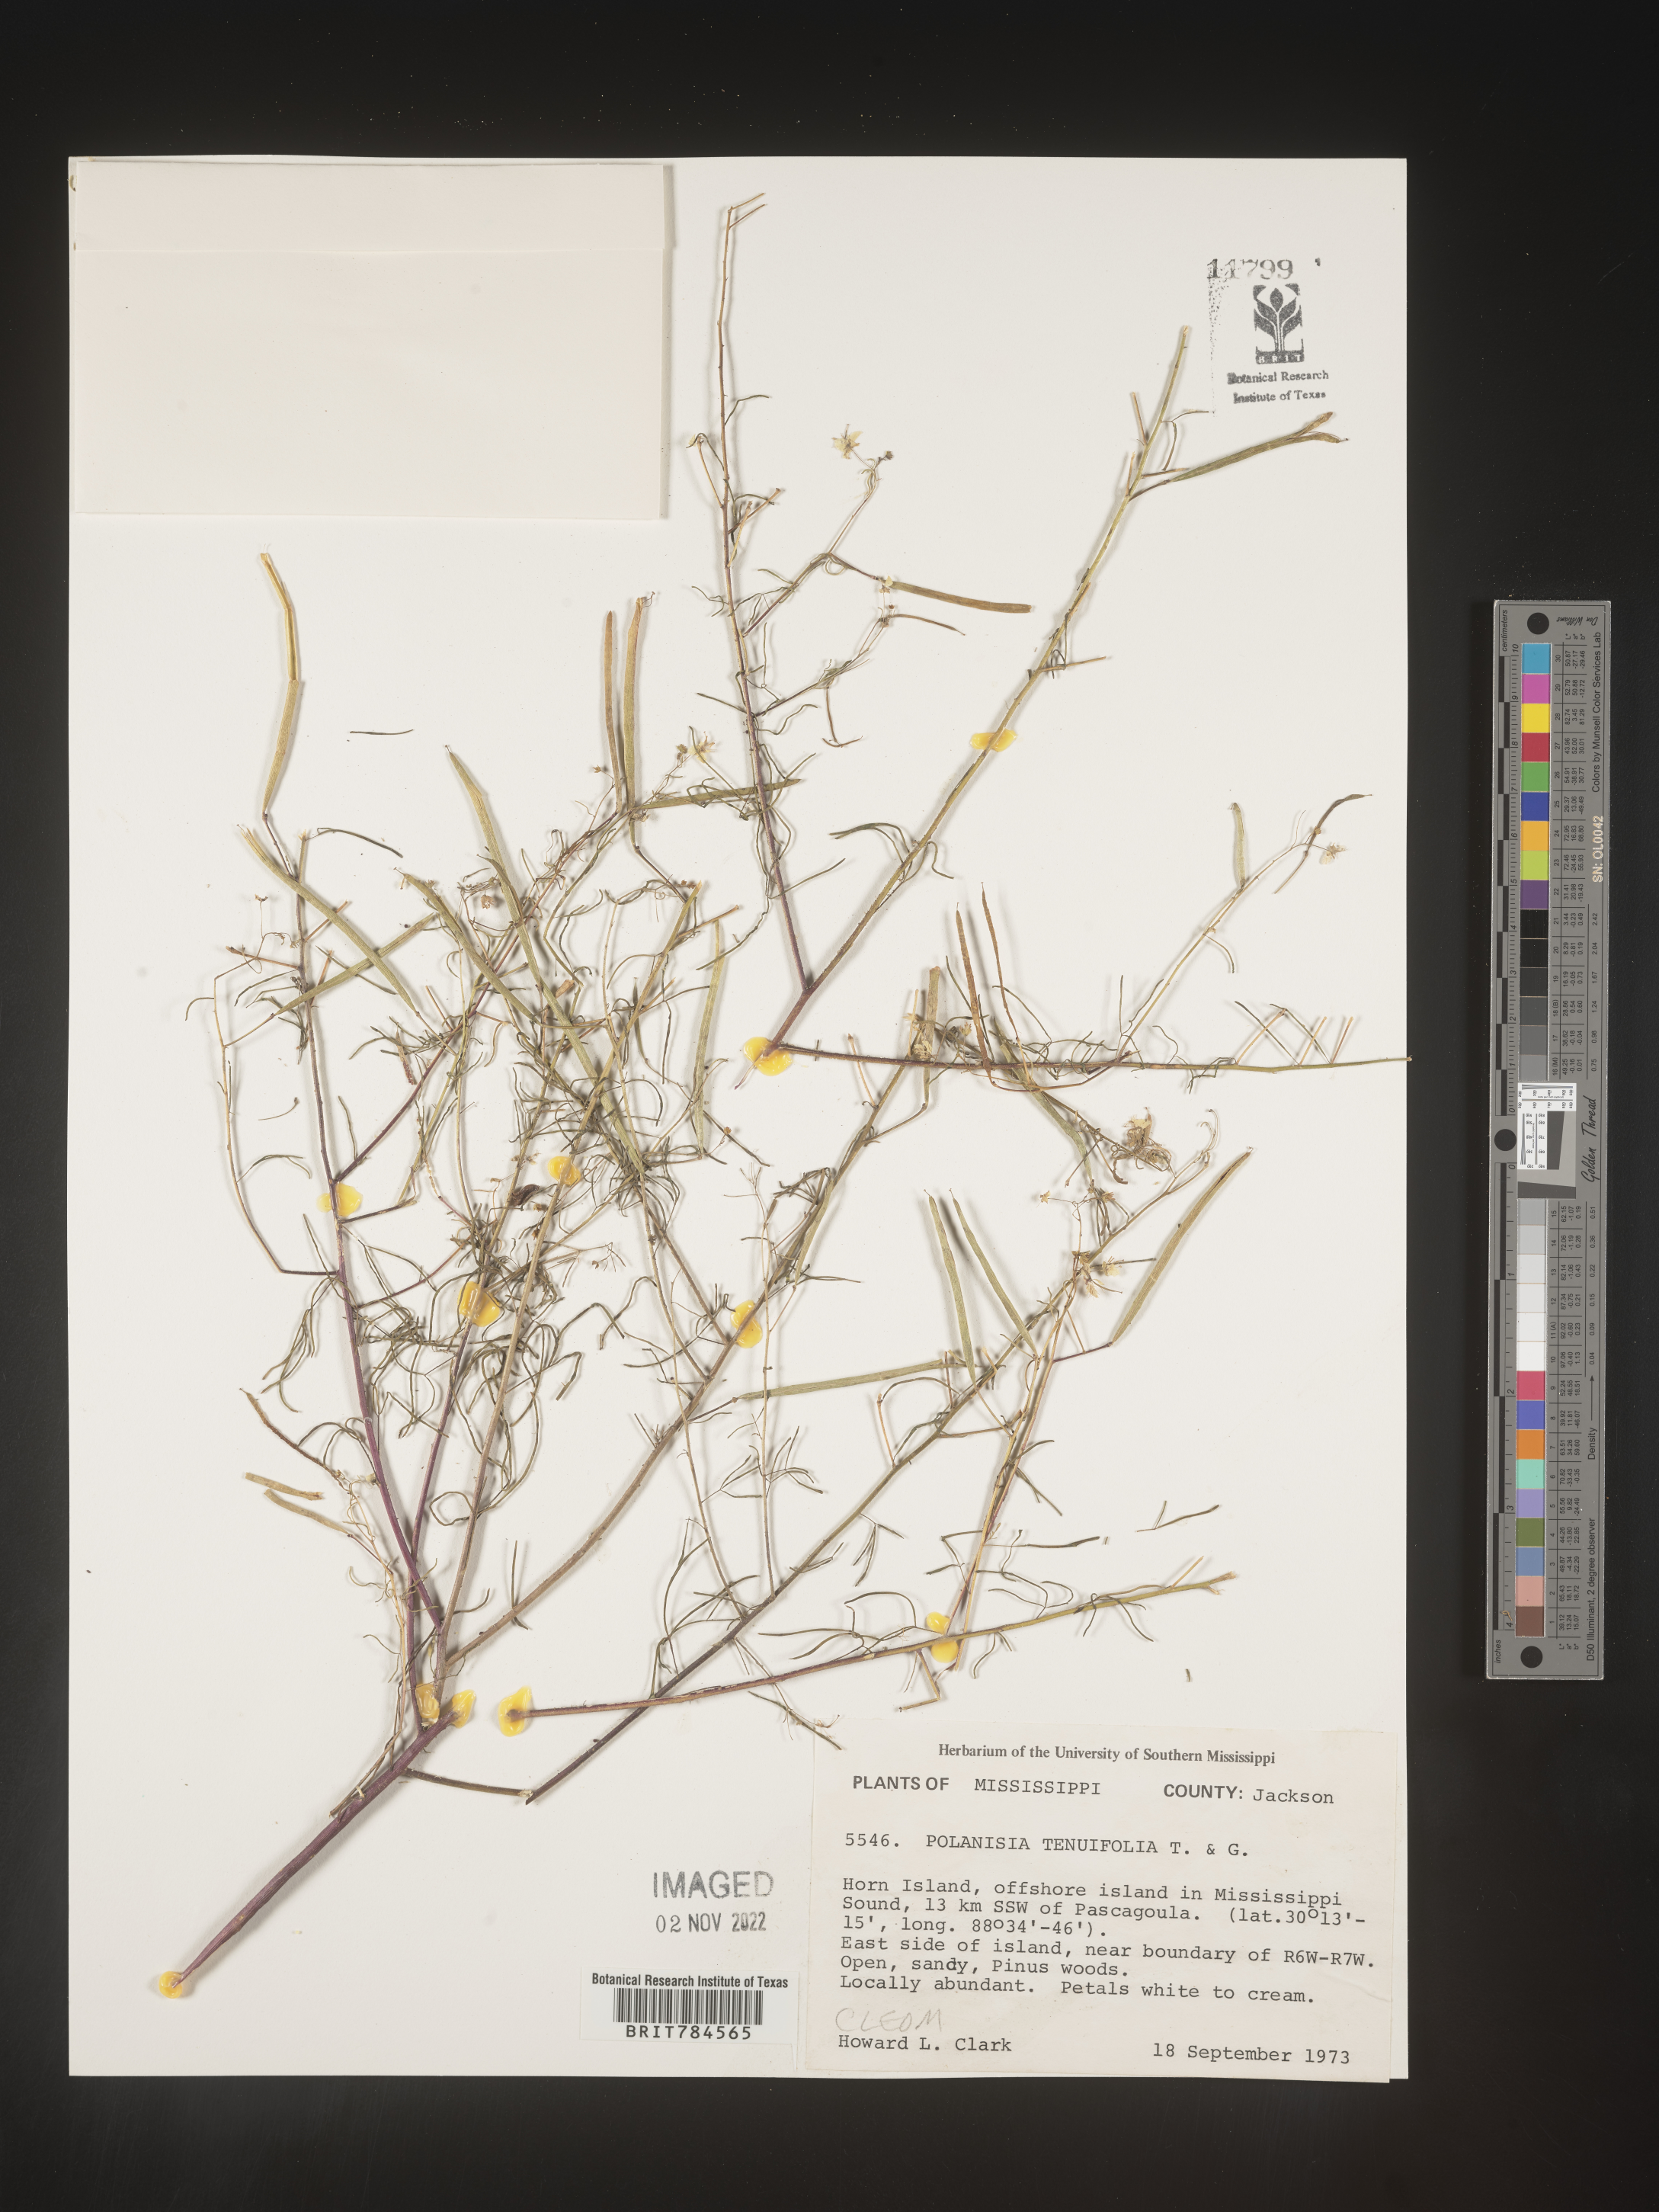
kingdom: Plantae
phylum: Tracheophyta
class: Magnoliopsida
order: Brassicales
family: Cleomaceae
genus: Polanisia
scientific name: Polanisia
